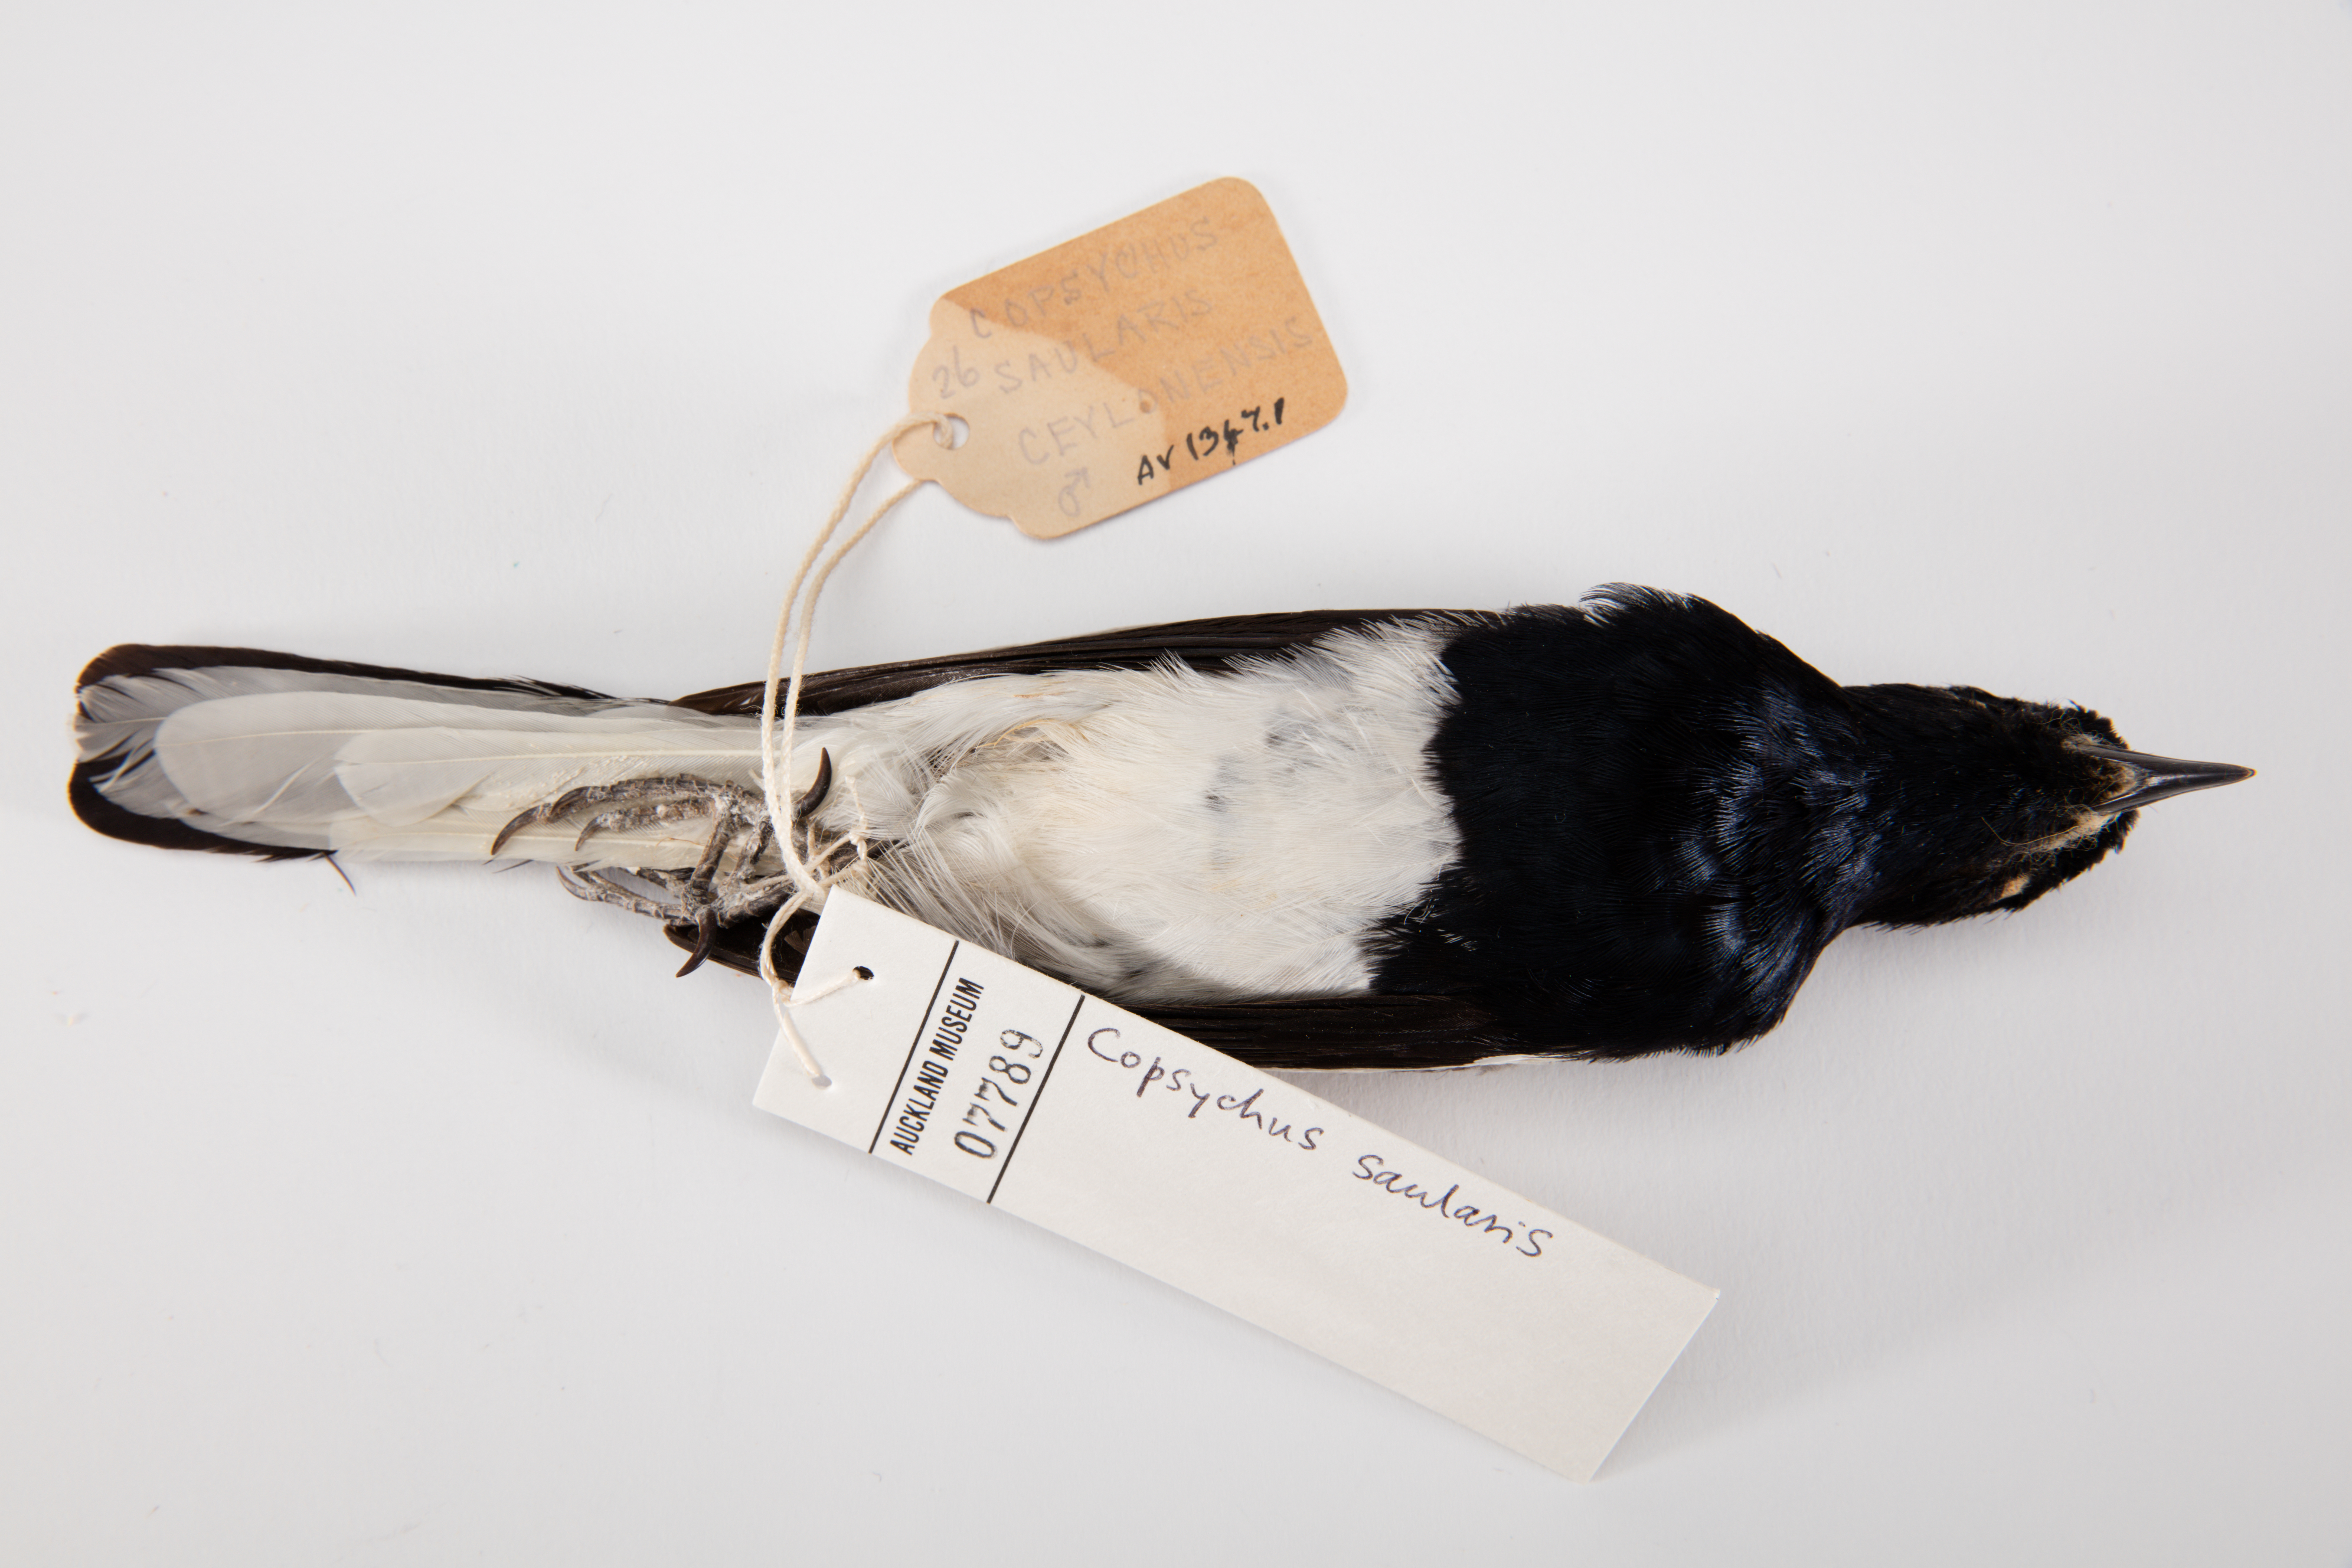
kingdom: Animalia
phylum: Chordata
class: Aves
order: Passeriformes
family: Muscicapidae
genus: Copsychus
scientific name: Copsychus saularis
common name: Oriental magpie-robin
